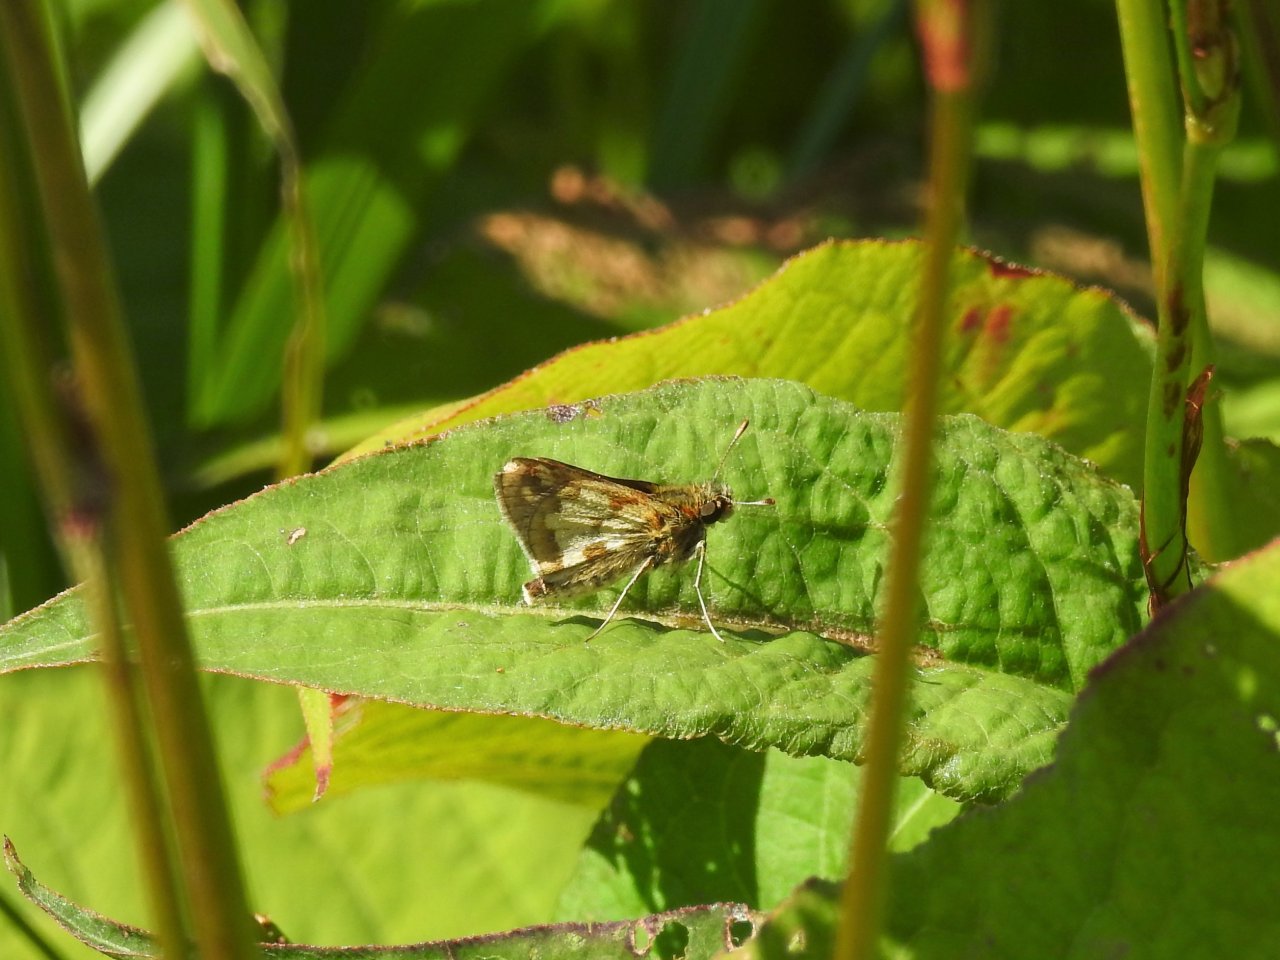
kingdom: Animalia
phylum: Arthropoda
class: Insecta
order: Lepidoptera
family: Hesperiidae
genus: Polites
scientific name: Polites coras
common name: Peck's Skipper
